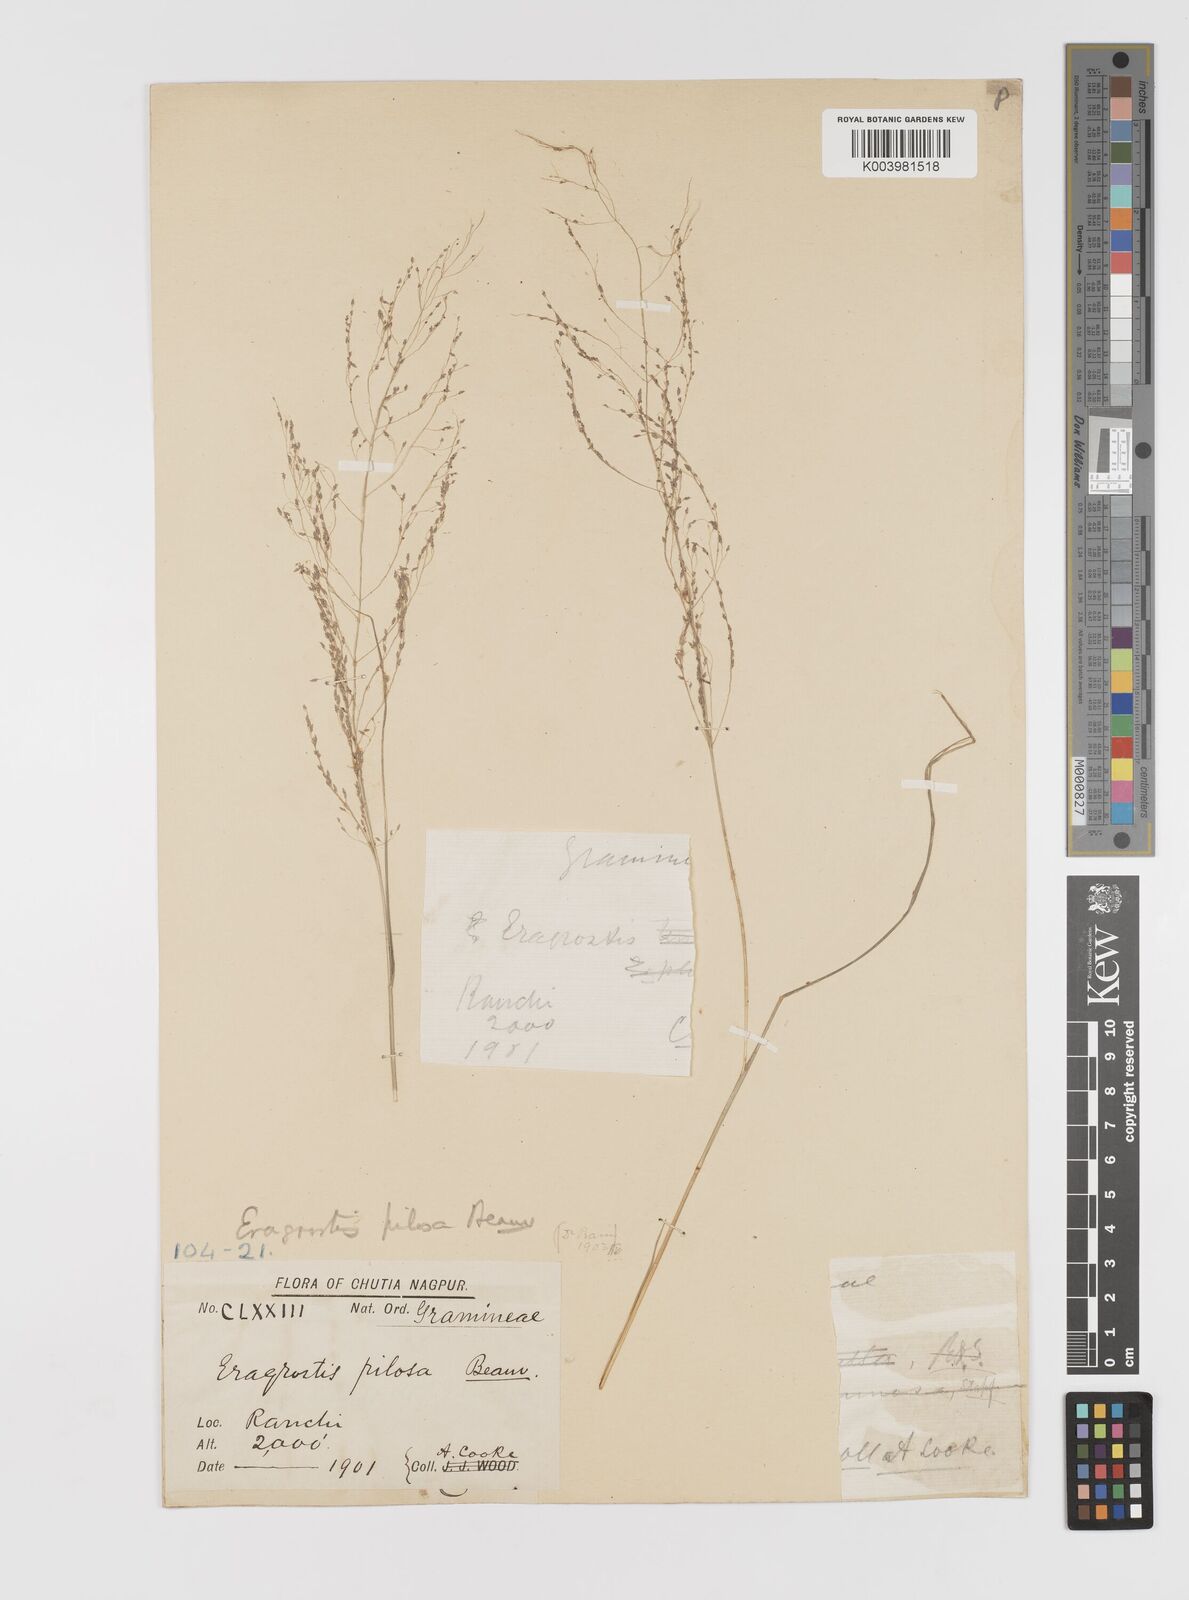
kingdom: Plantae
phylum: Tracheophyta
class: Liliopsida
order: Poales
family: Poaceae
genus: Eragrostis
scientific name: Eragrostis pilosa
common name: Indian lovegrass
